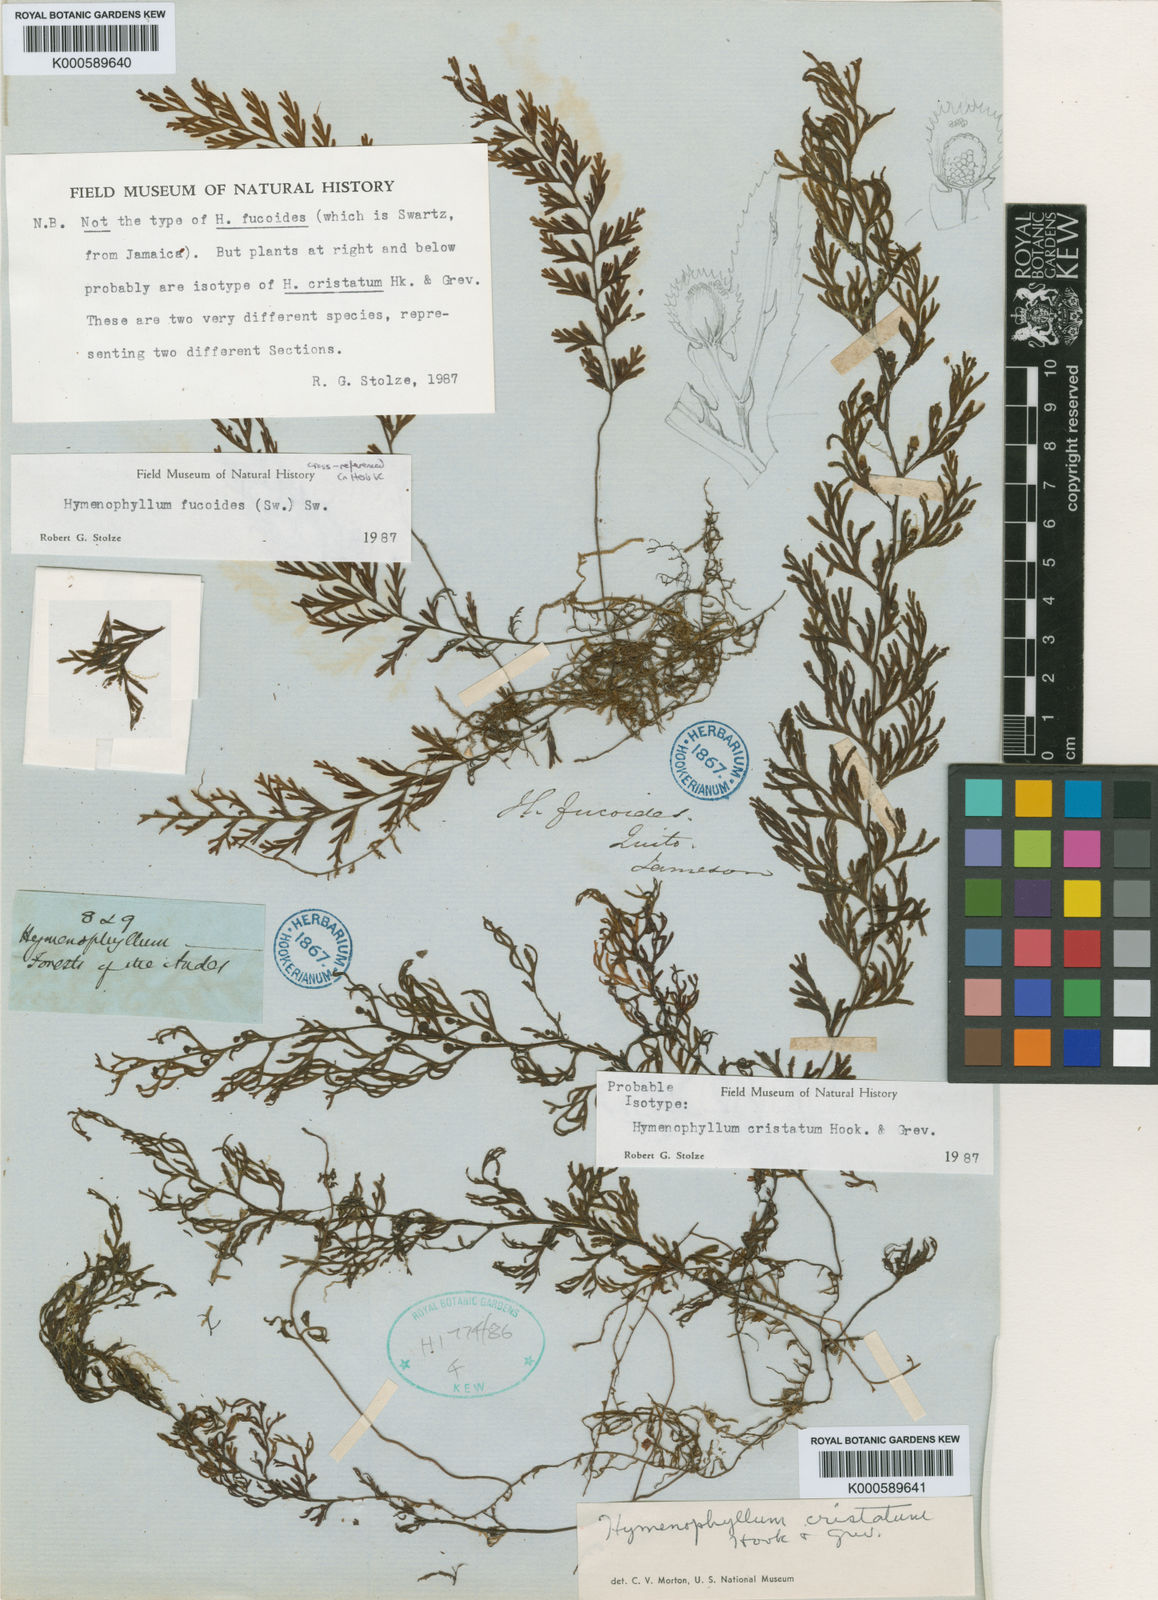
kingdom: Plantae
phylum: Tracheophyta
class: Polypodiopsida
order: Hymenophyllales
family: Hymenophyllaceae
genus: Hymenophyllum
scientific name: Hymenophyllum cristatum
